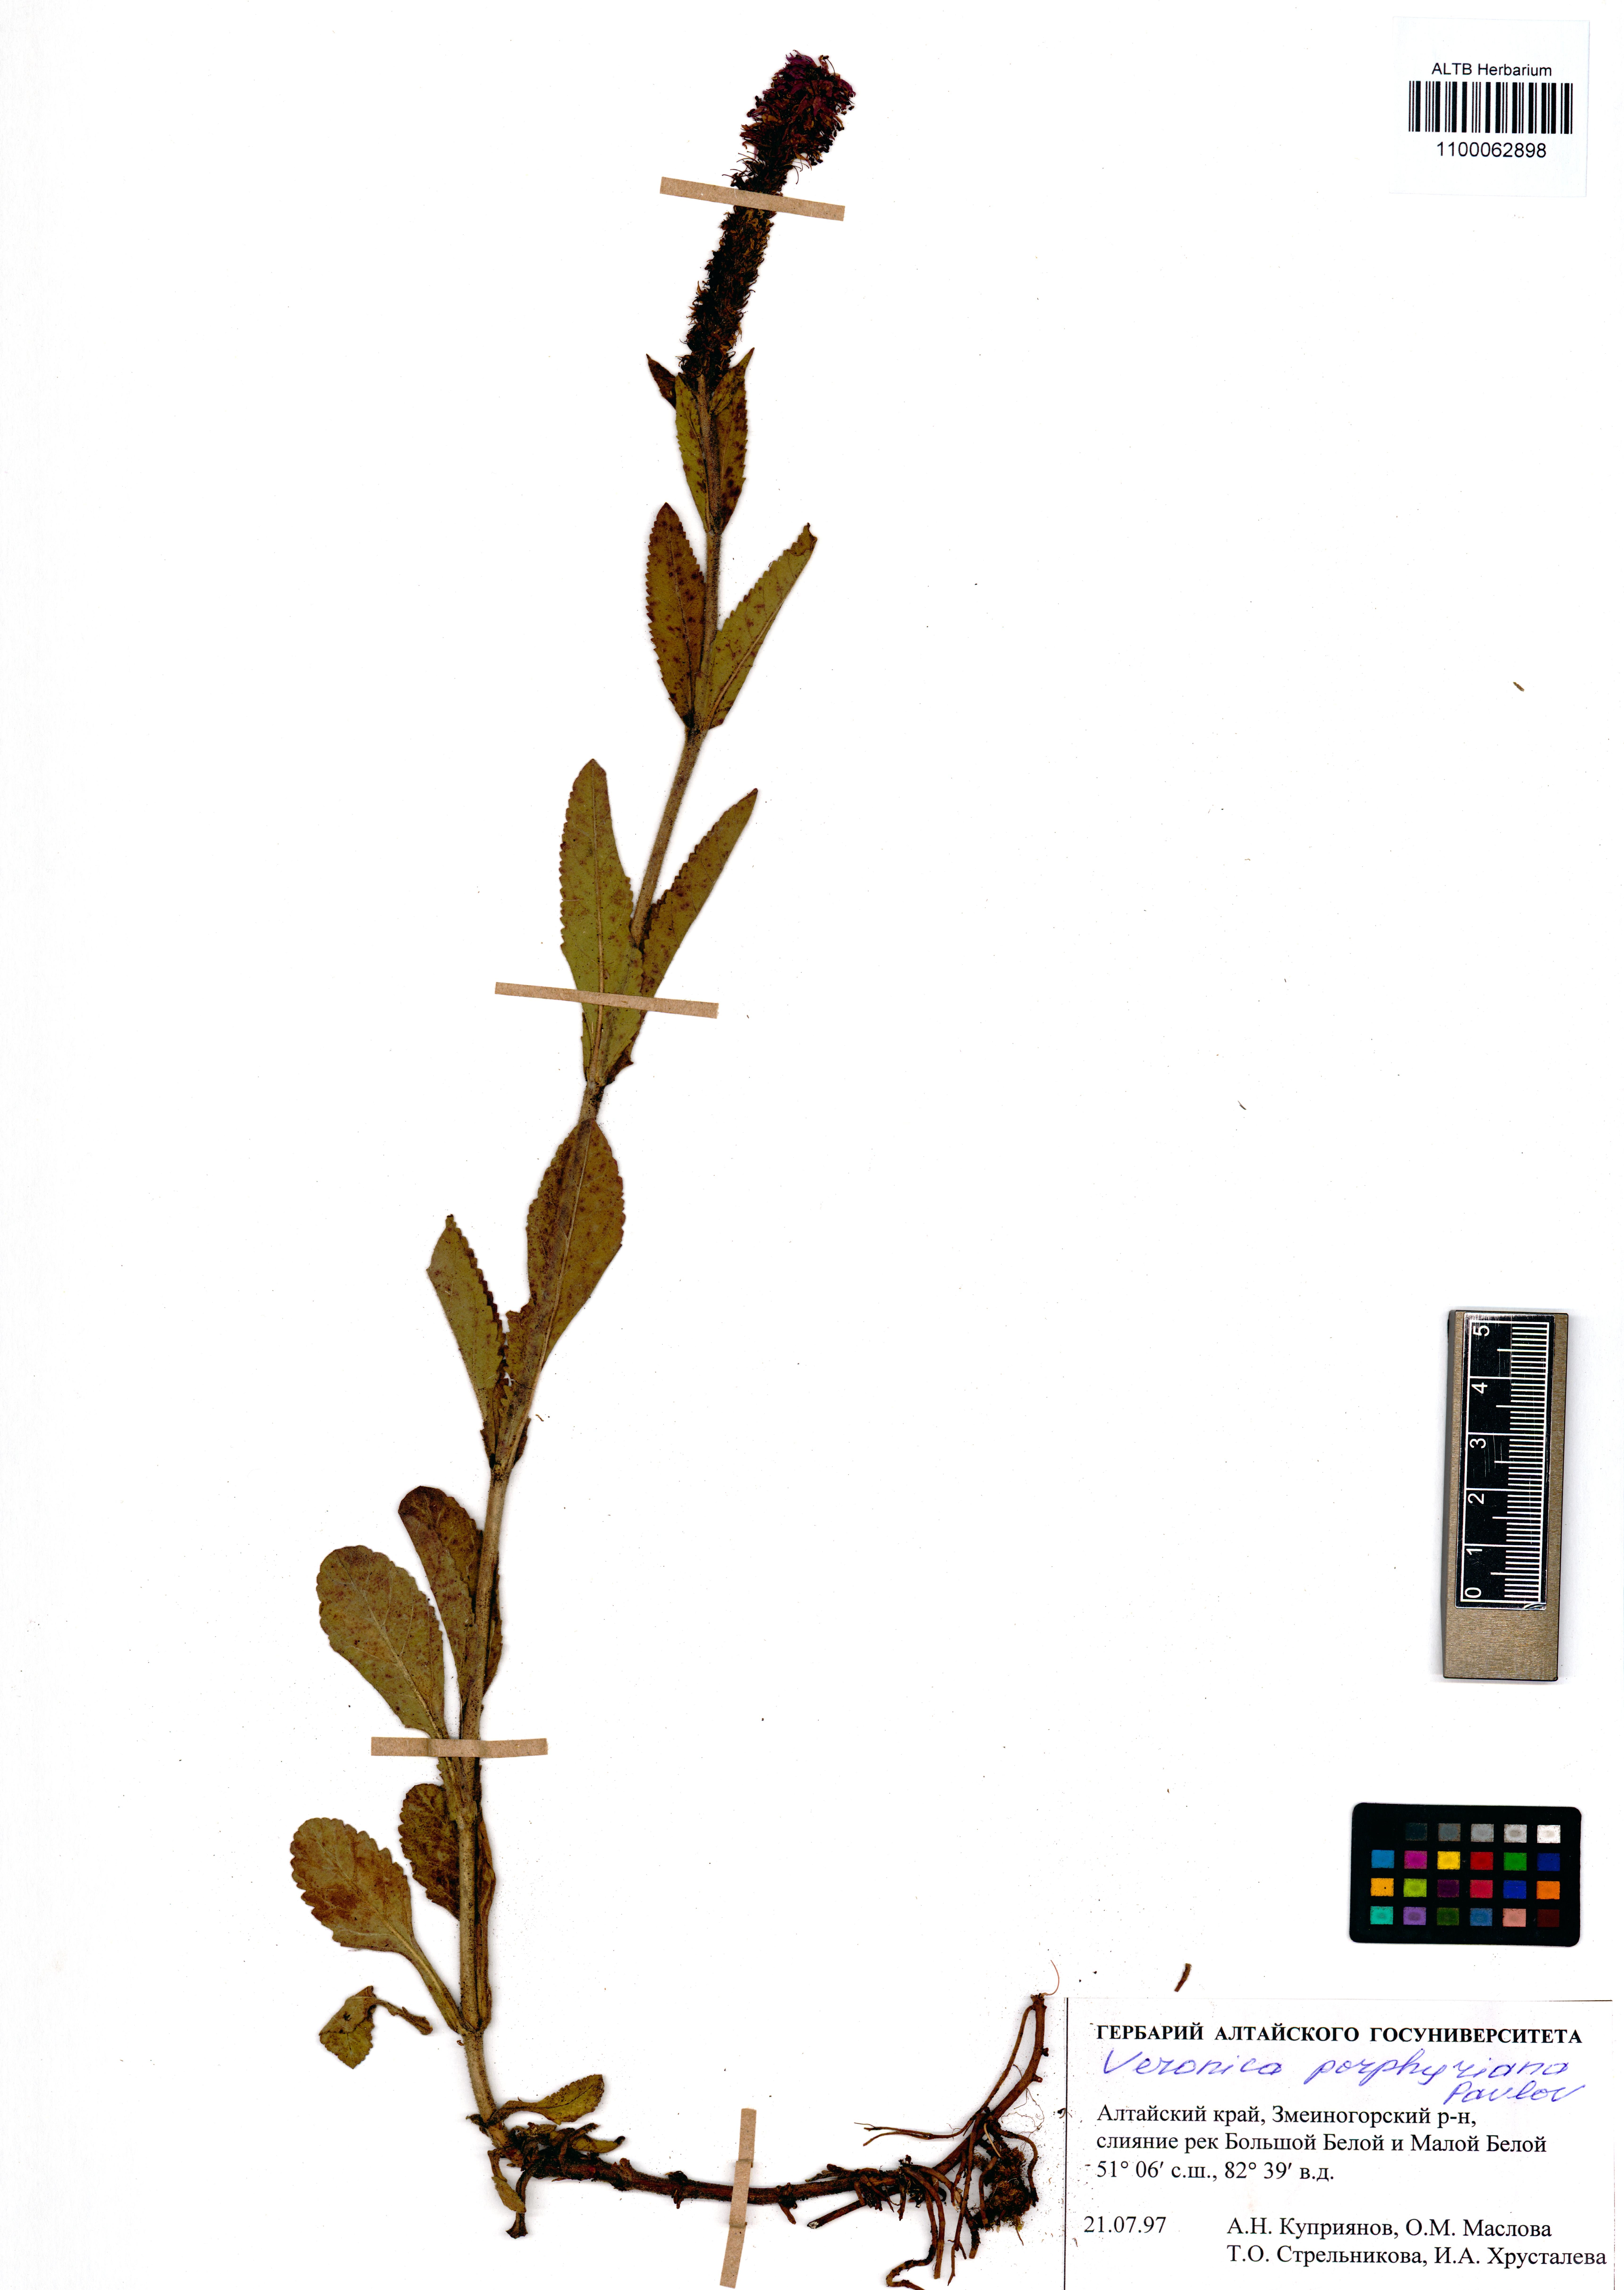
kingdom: Plantae
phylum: Tracheophyta
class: Magnoliopsida
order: Lamiales
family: Plantaginaceae
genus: Veronica
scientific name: Veronica porphyriana
